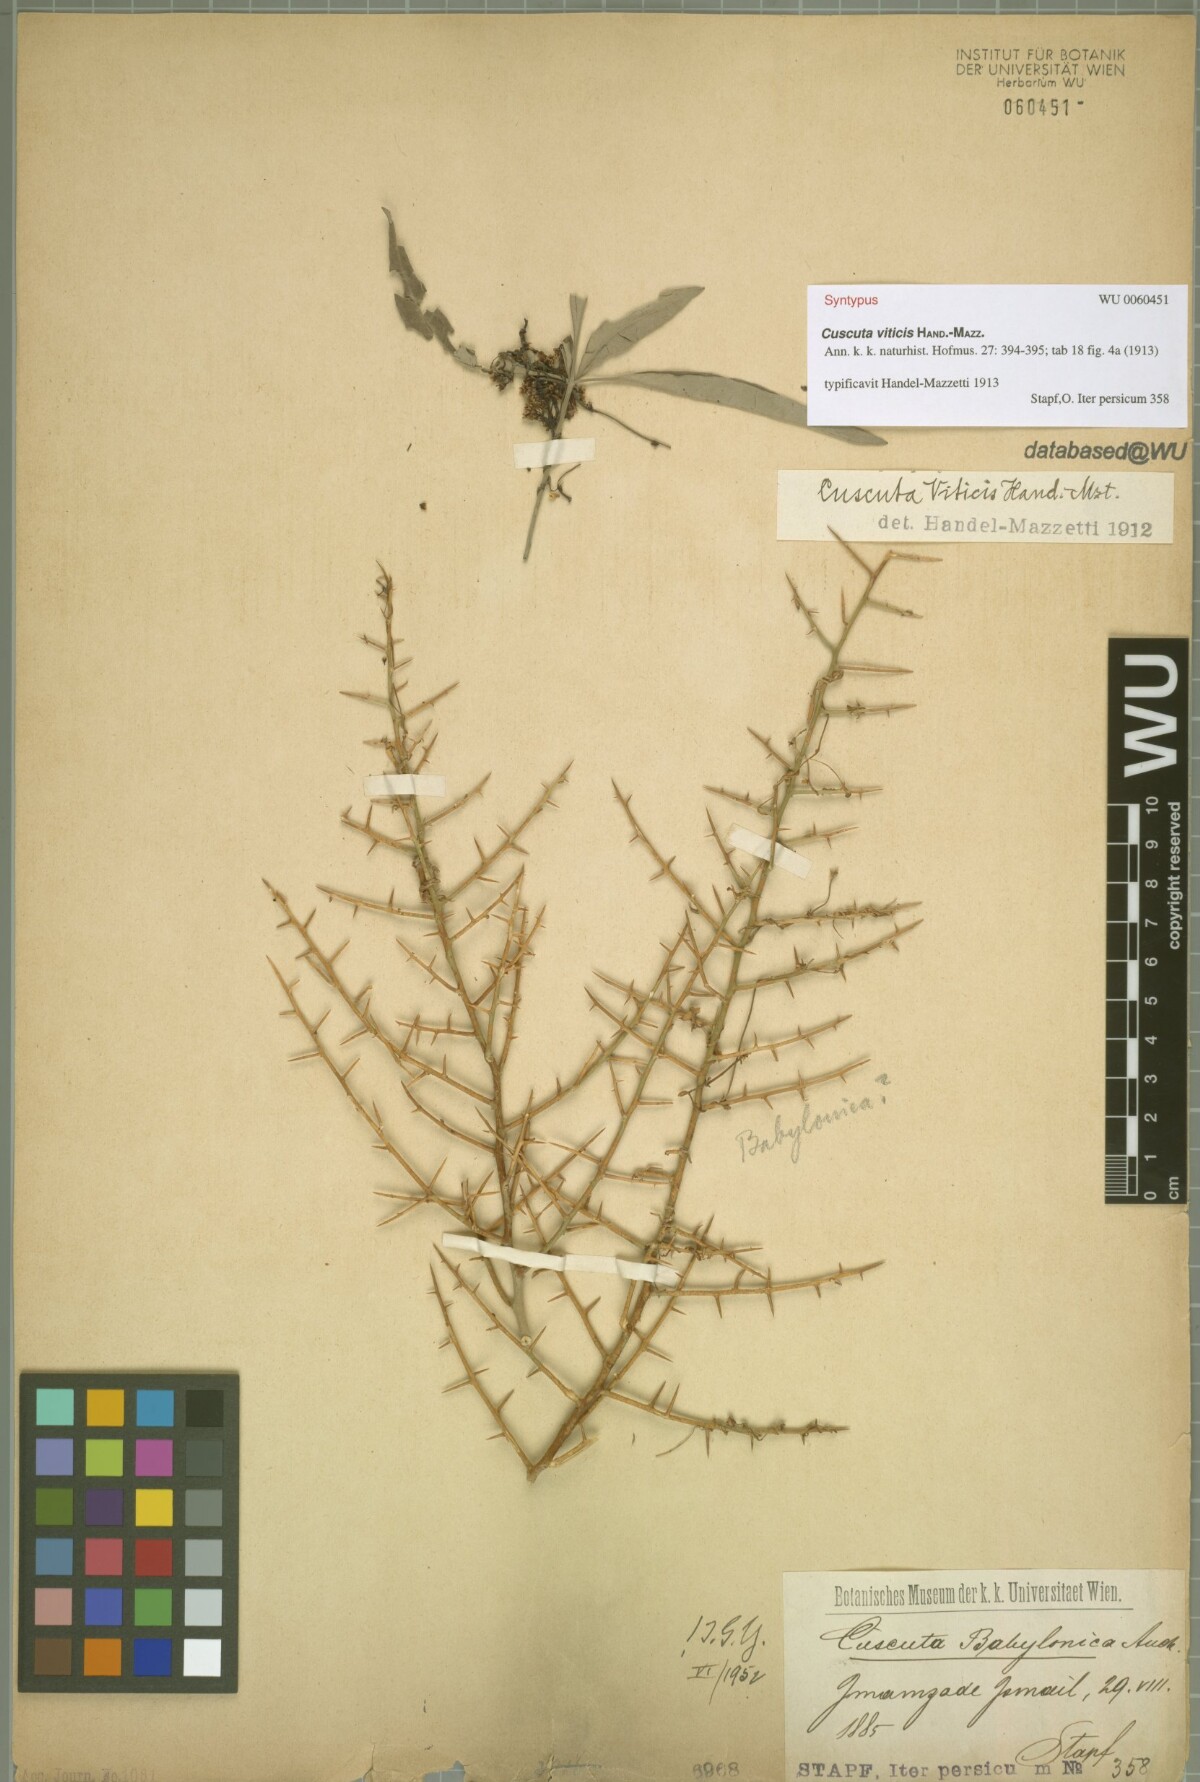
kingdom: Plantae
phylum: Tracheophyta
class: Magnoliopsida
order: Solanales
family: Convolvulaceae
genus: Cuscuta
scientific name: Cuscuta babylonica
